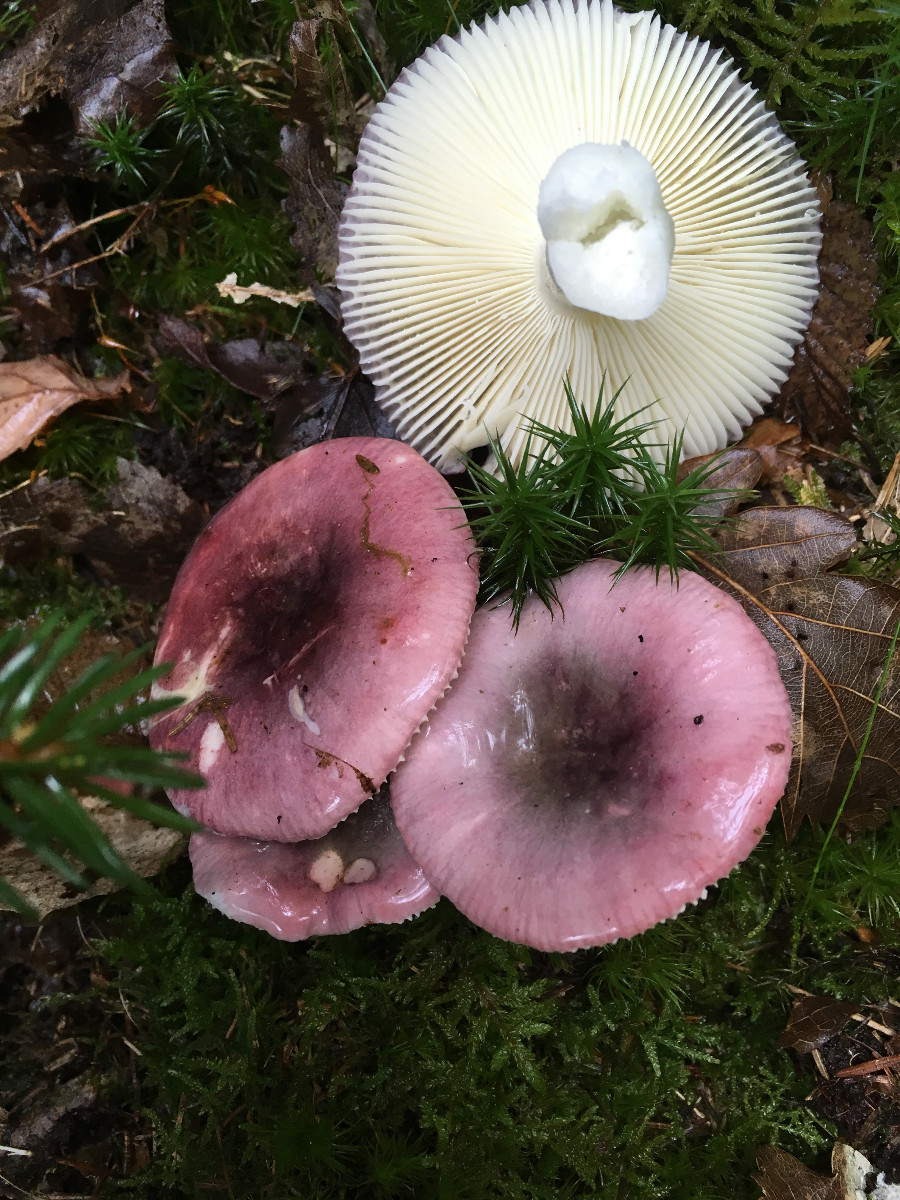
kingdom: Fungi
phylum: Basidiomycota
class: Agaricomycetes
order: Russulales
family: Russulaceae
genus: Russula
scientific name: Russula atrorubens
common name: sortrød skørhat
